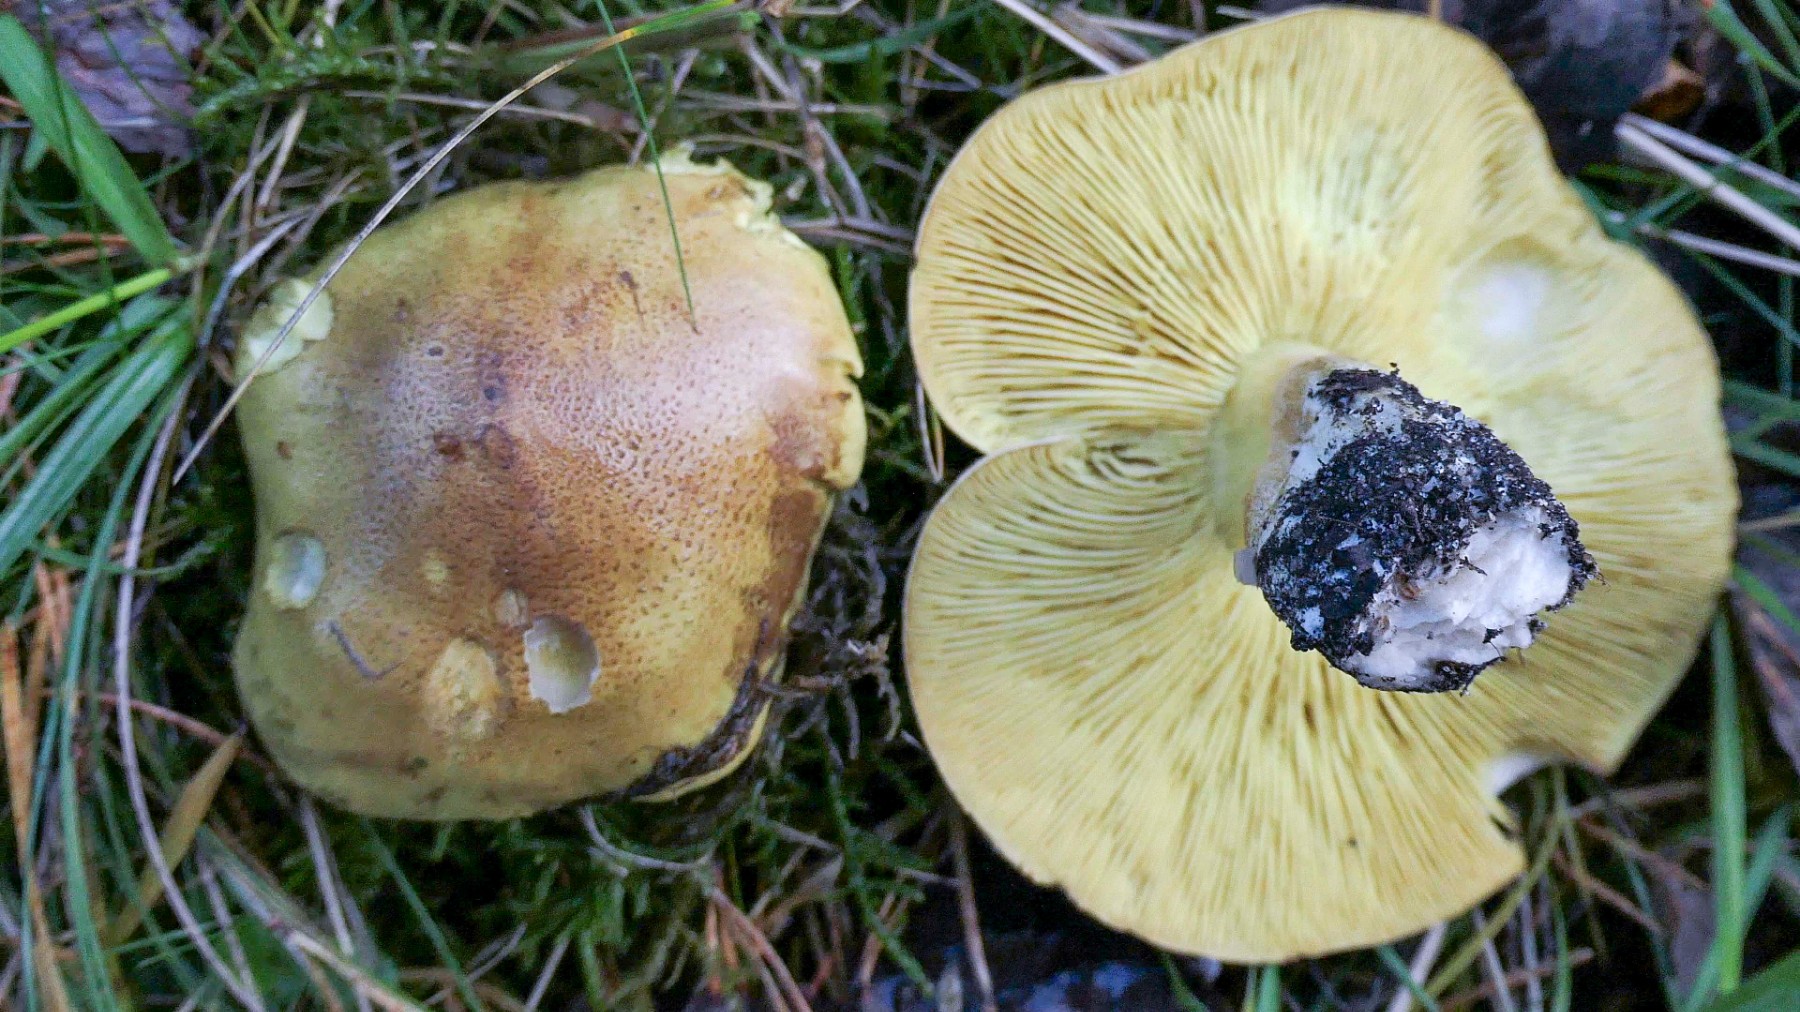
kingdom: Fungi
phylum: Basidiomycota
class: Agaricomycetes
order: Agaricales
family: Tricholomataceae
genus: Tricholoma
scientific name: Tricholoma frondosae
